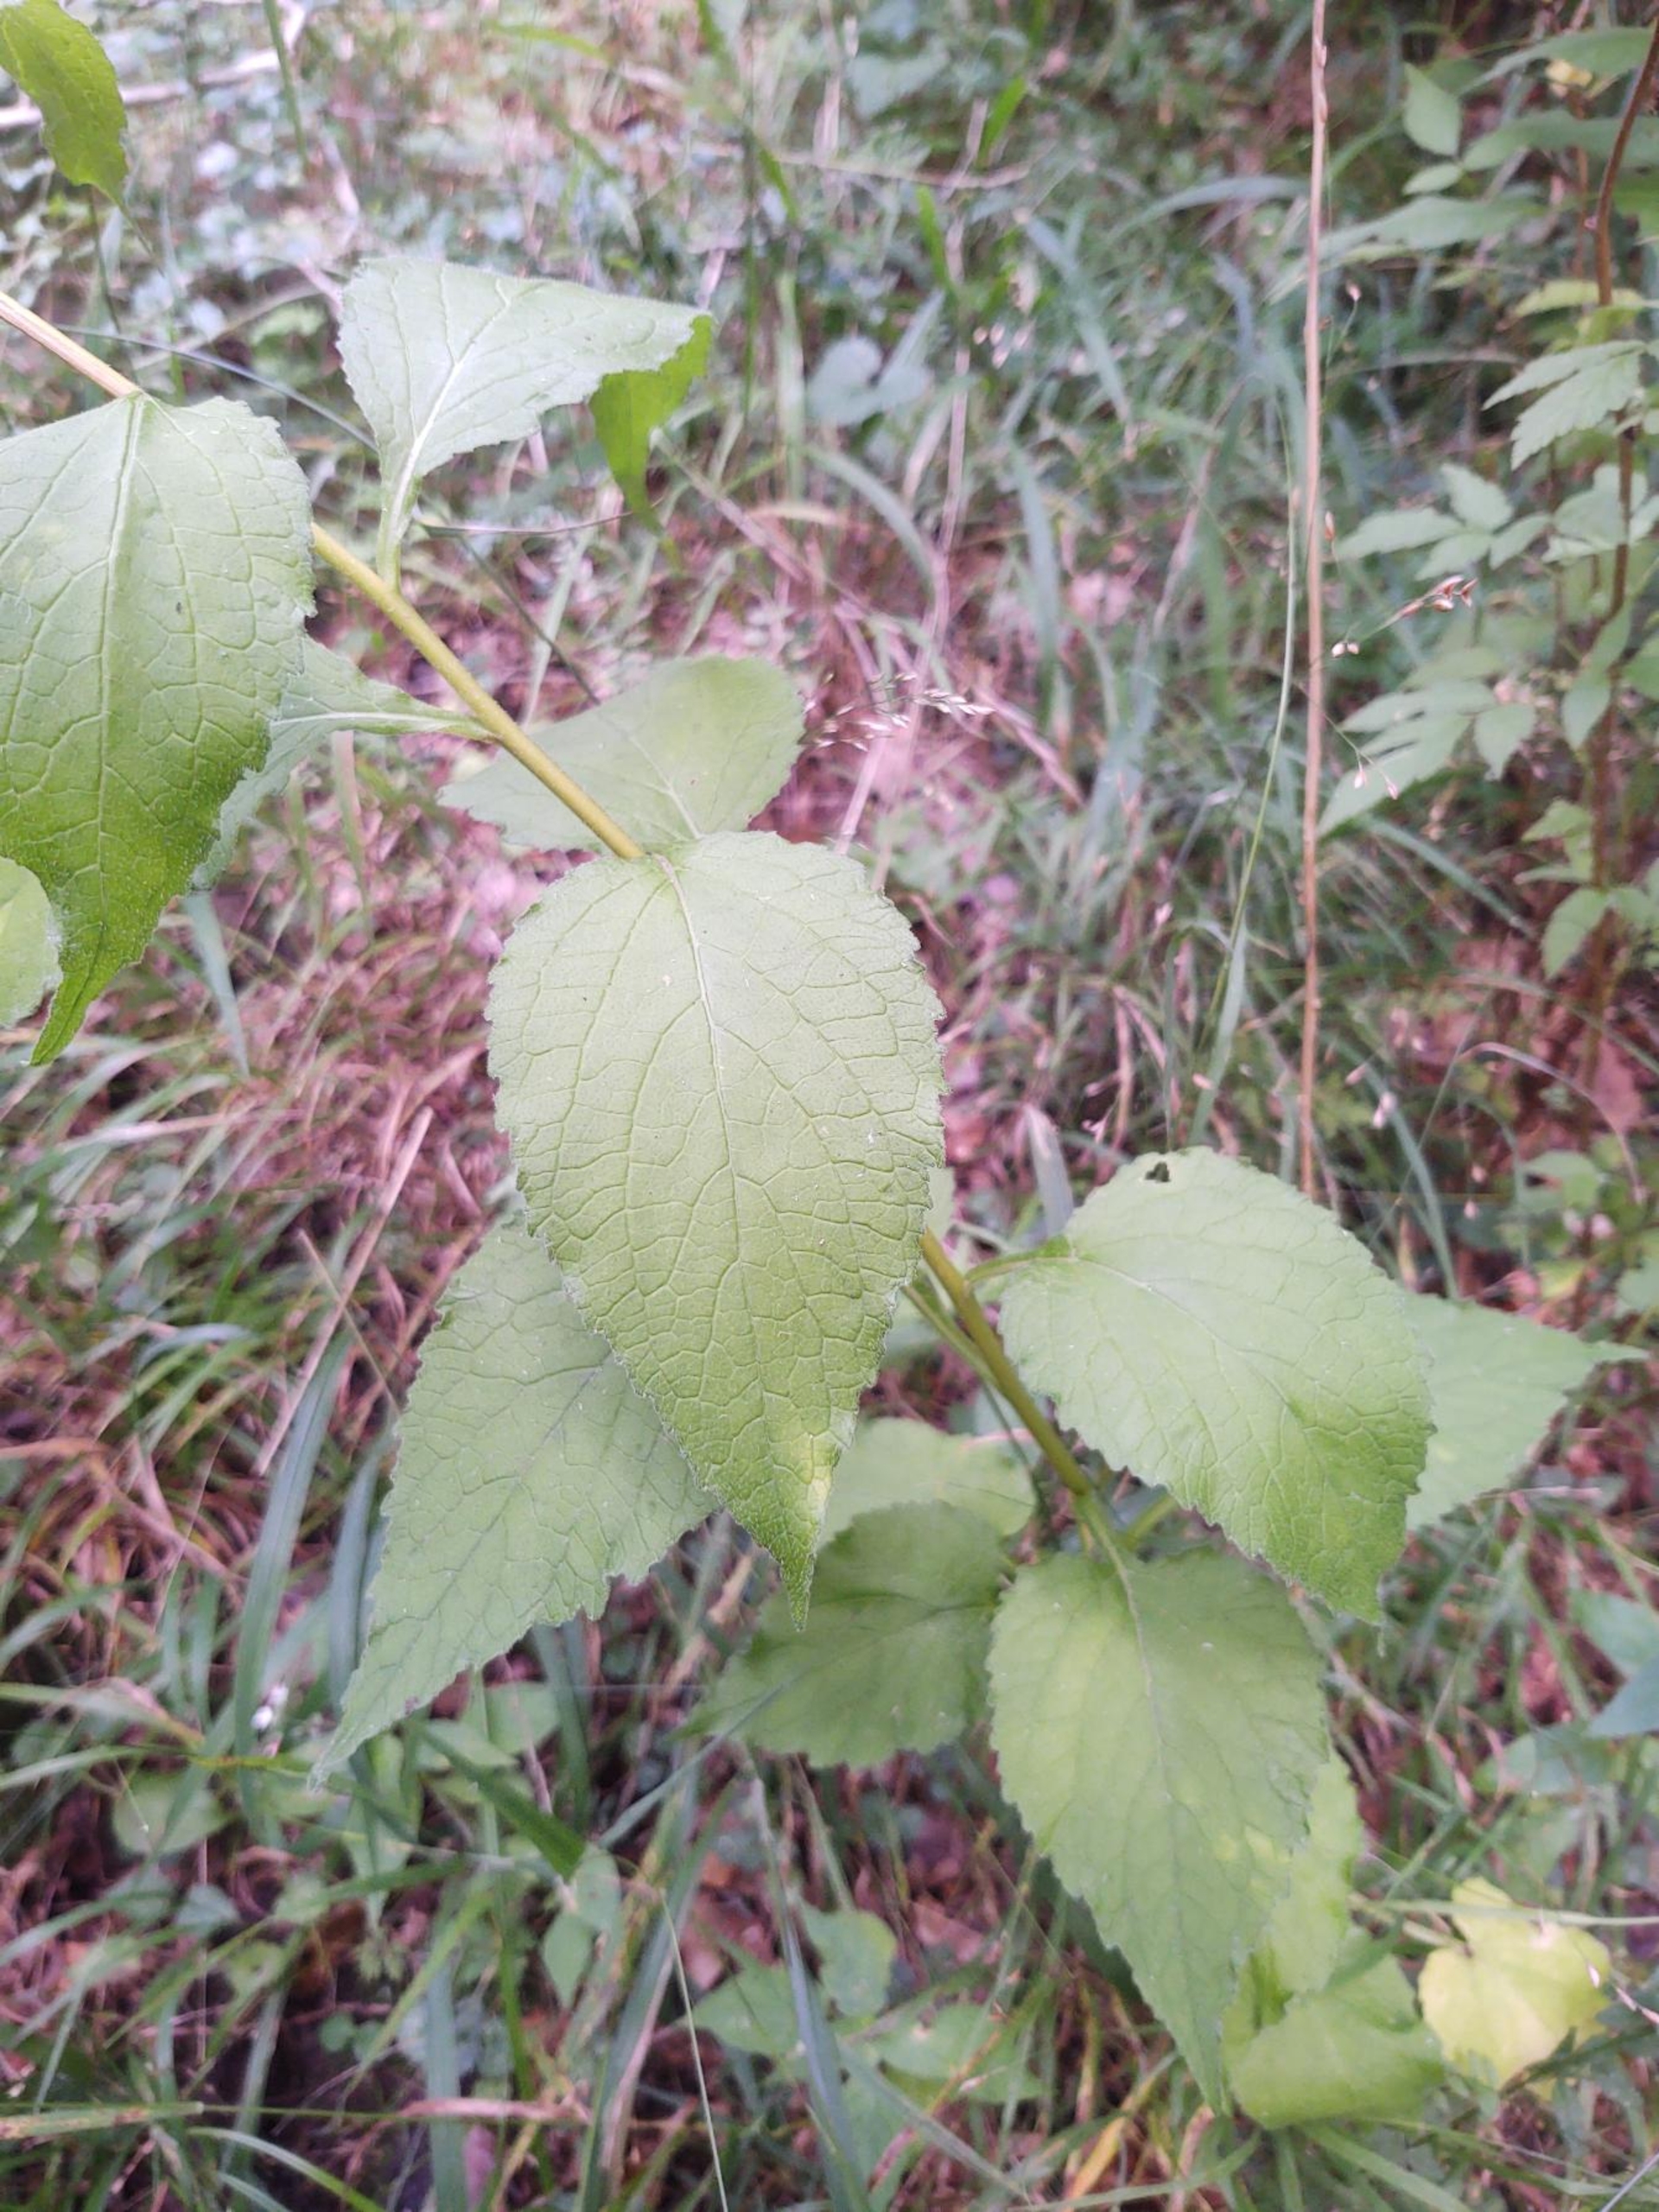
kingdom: Plantae
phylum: Tracheophyta
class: Magnoliopsida
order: Asterales
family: Campanulaceae
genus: Campanula
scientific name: Campanula latifolia
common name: Bredbladet klokke
